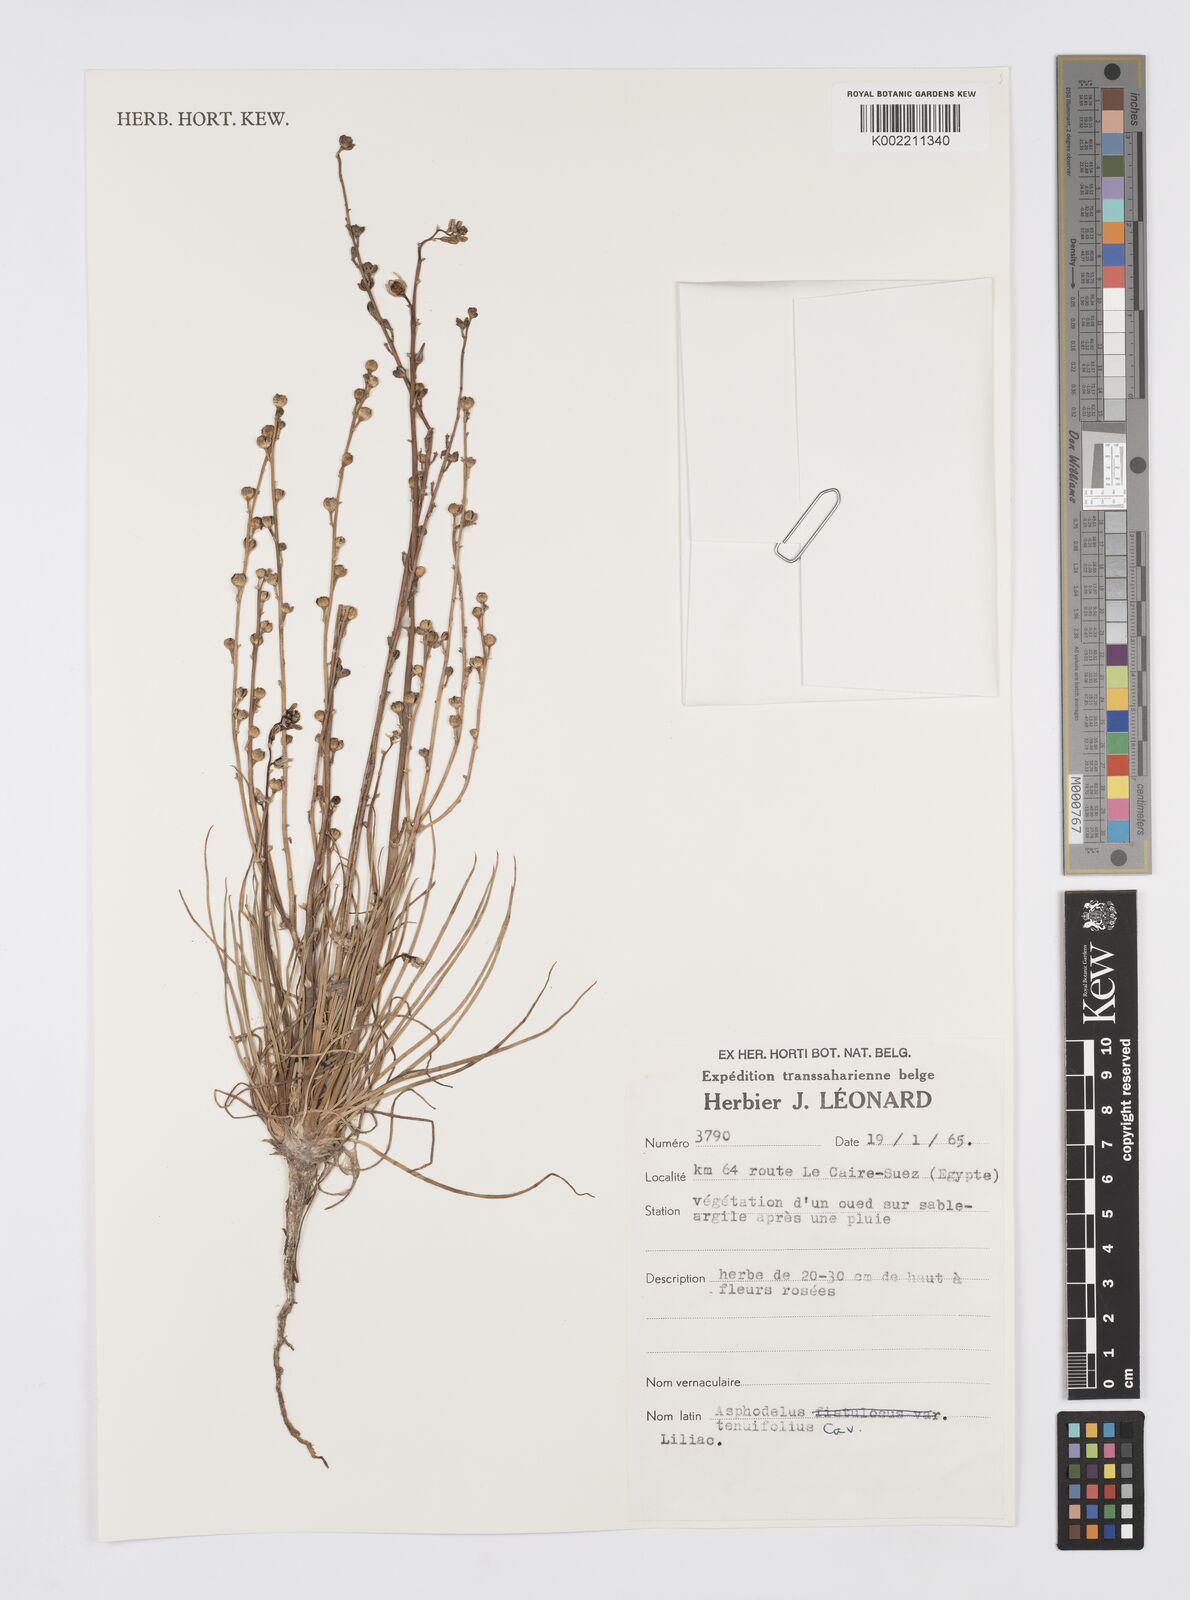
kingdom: Plantae
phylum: Tracheophyta
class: Liliopsida
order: Asparagales
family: Asphodelaceae
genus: Asphodelus
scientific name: Asphodelus tenuifolius
